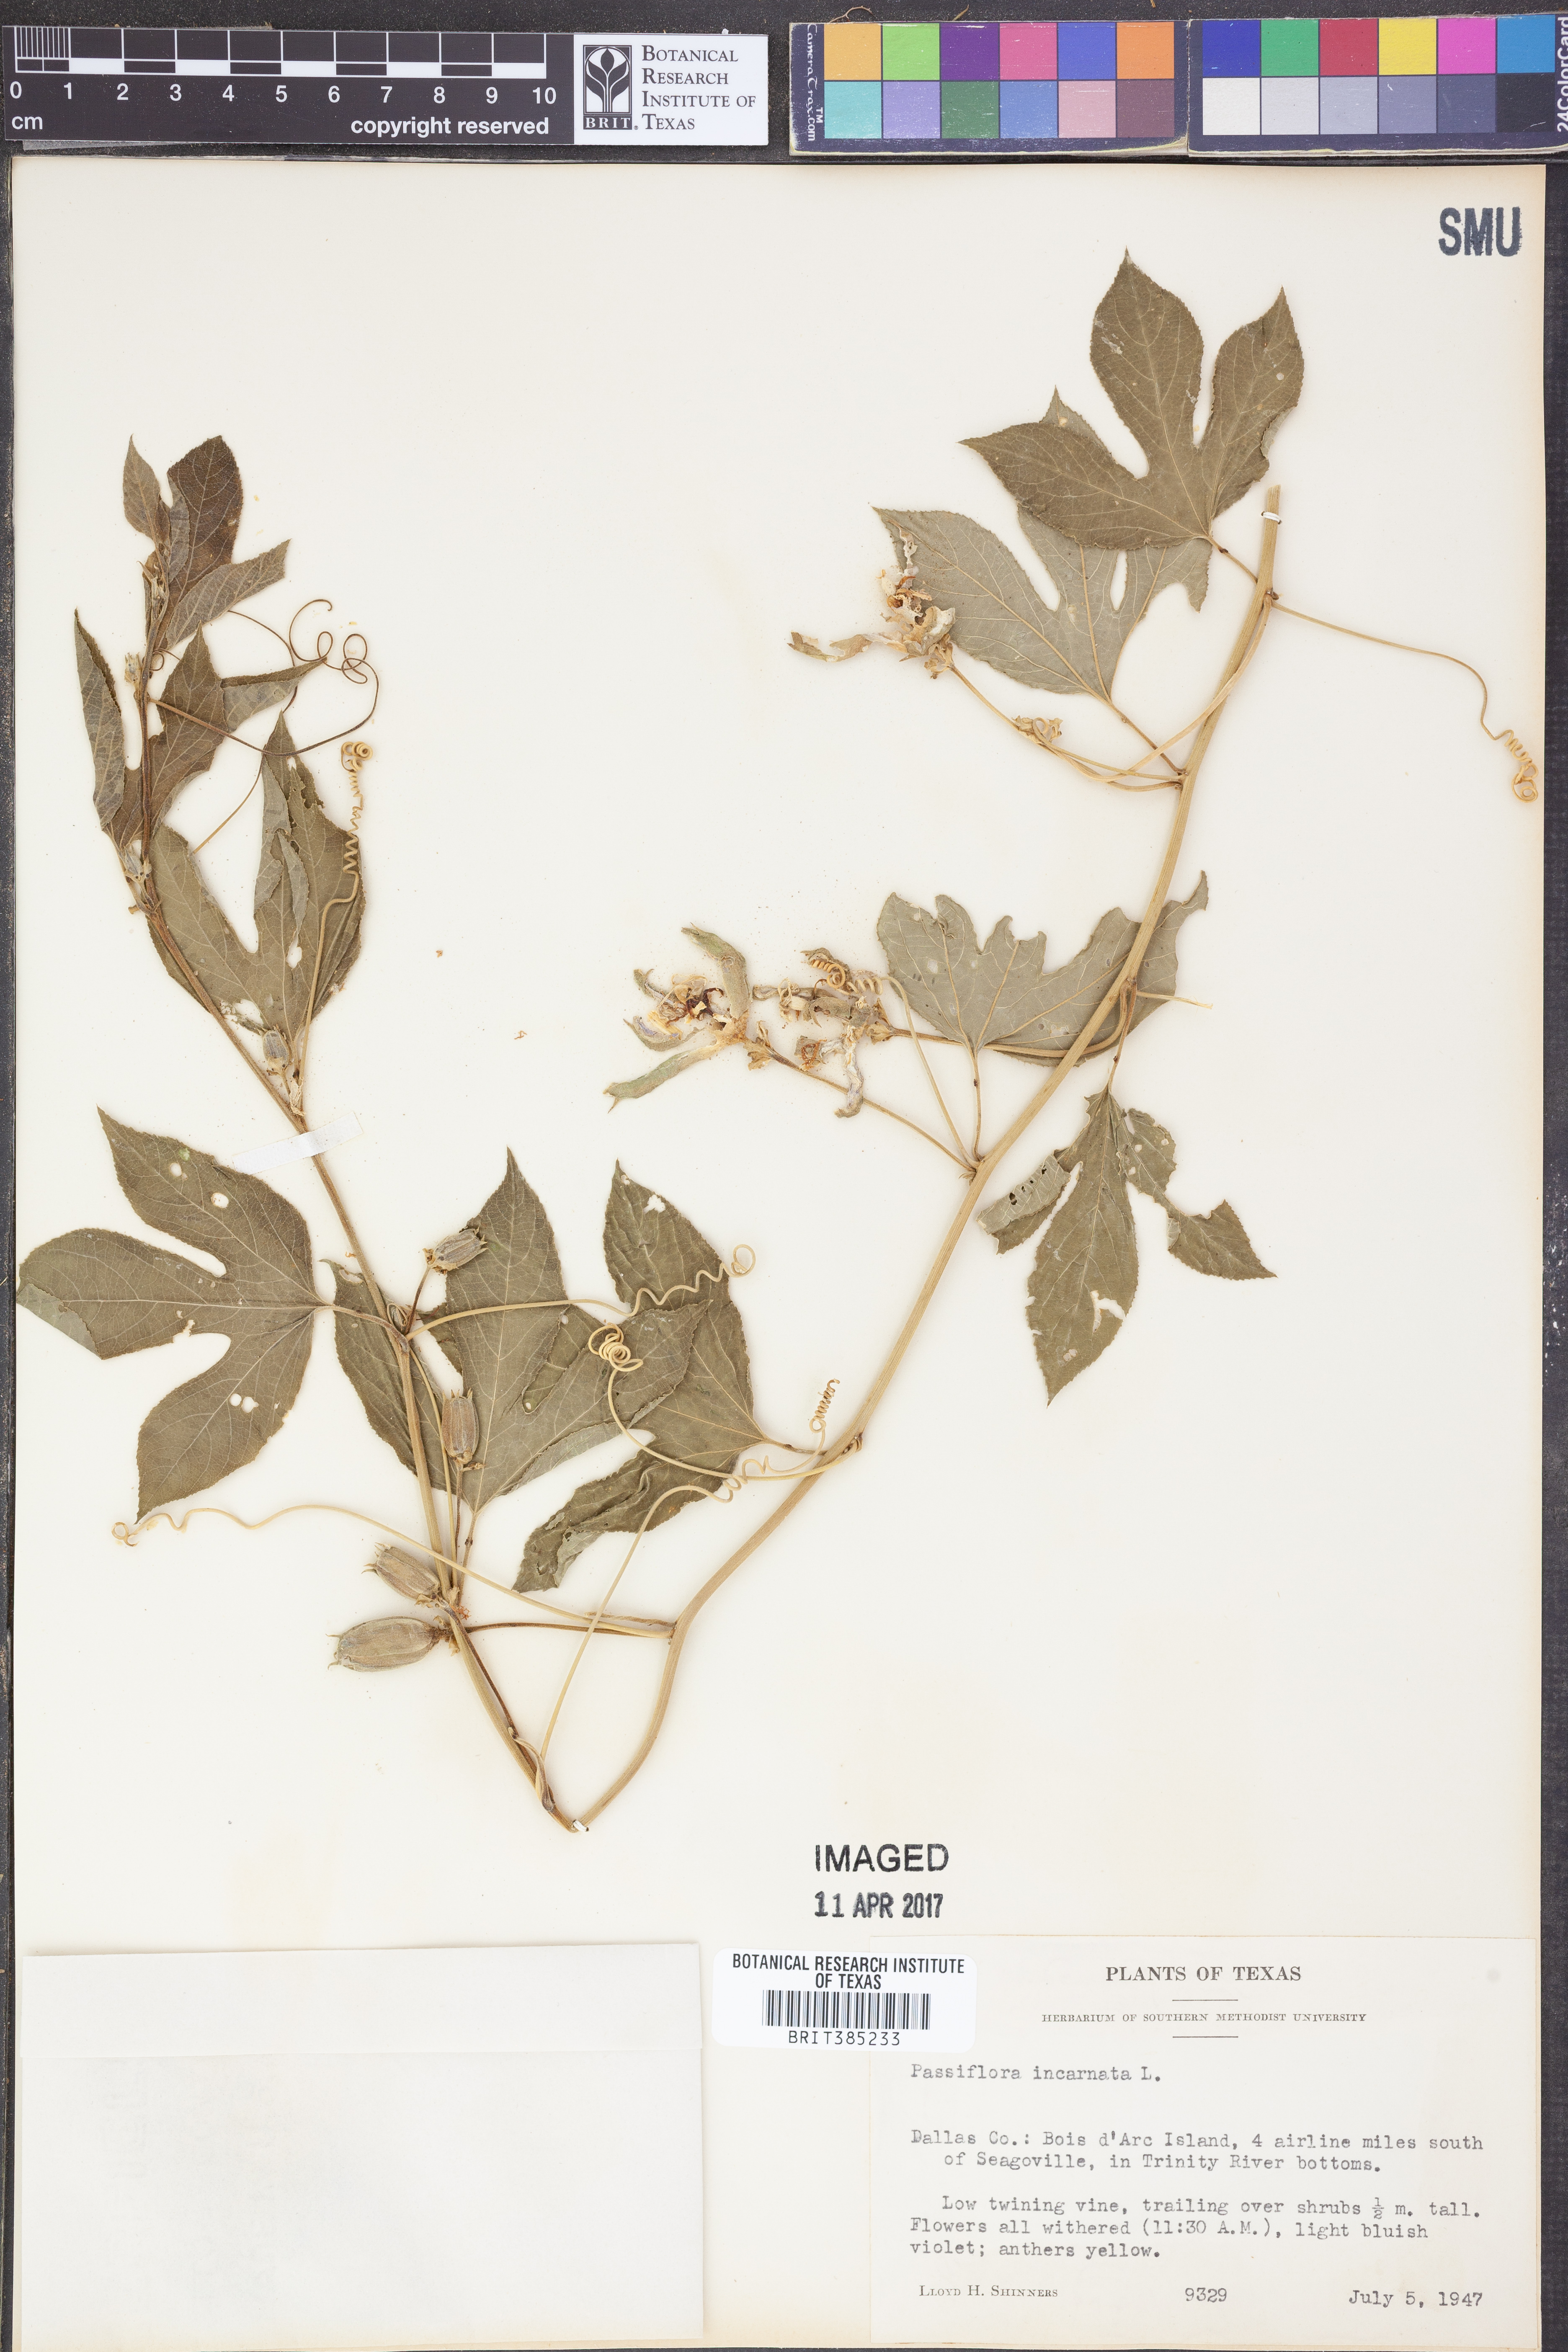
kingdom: Plantae
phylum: Tracheophyta
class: Magnoliopsida
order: Malpighiales
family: Passifloraceae
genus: Passiflora
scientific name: Passiflora incarnata
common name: Apricot-vine
